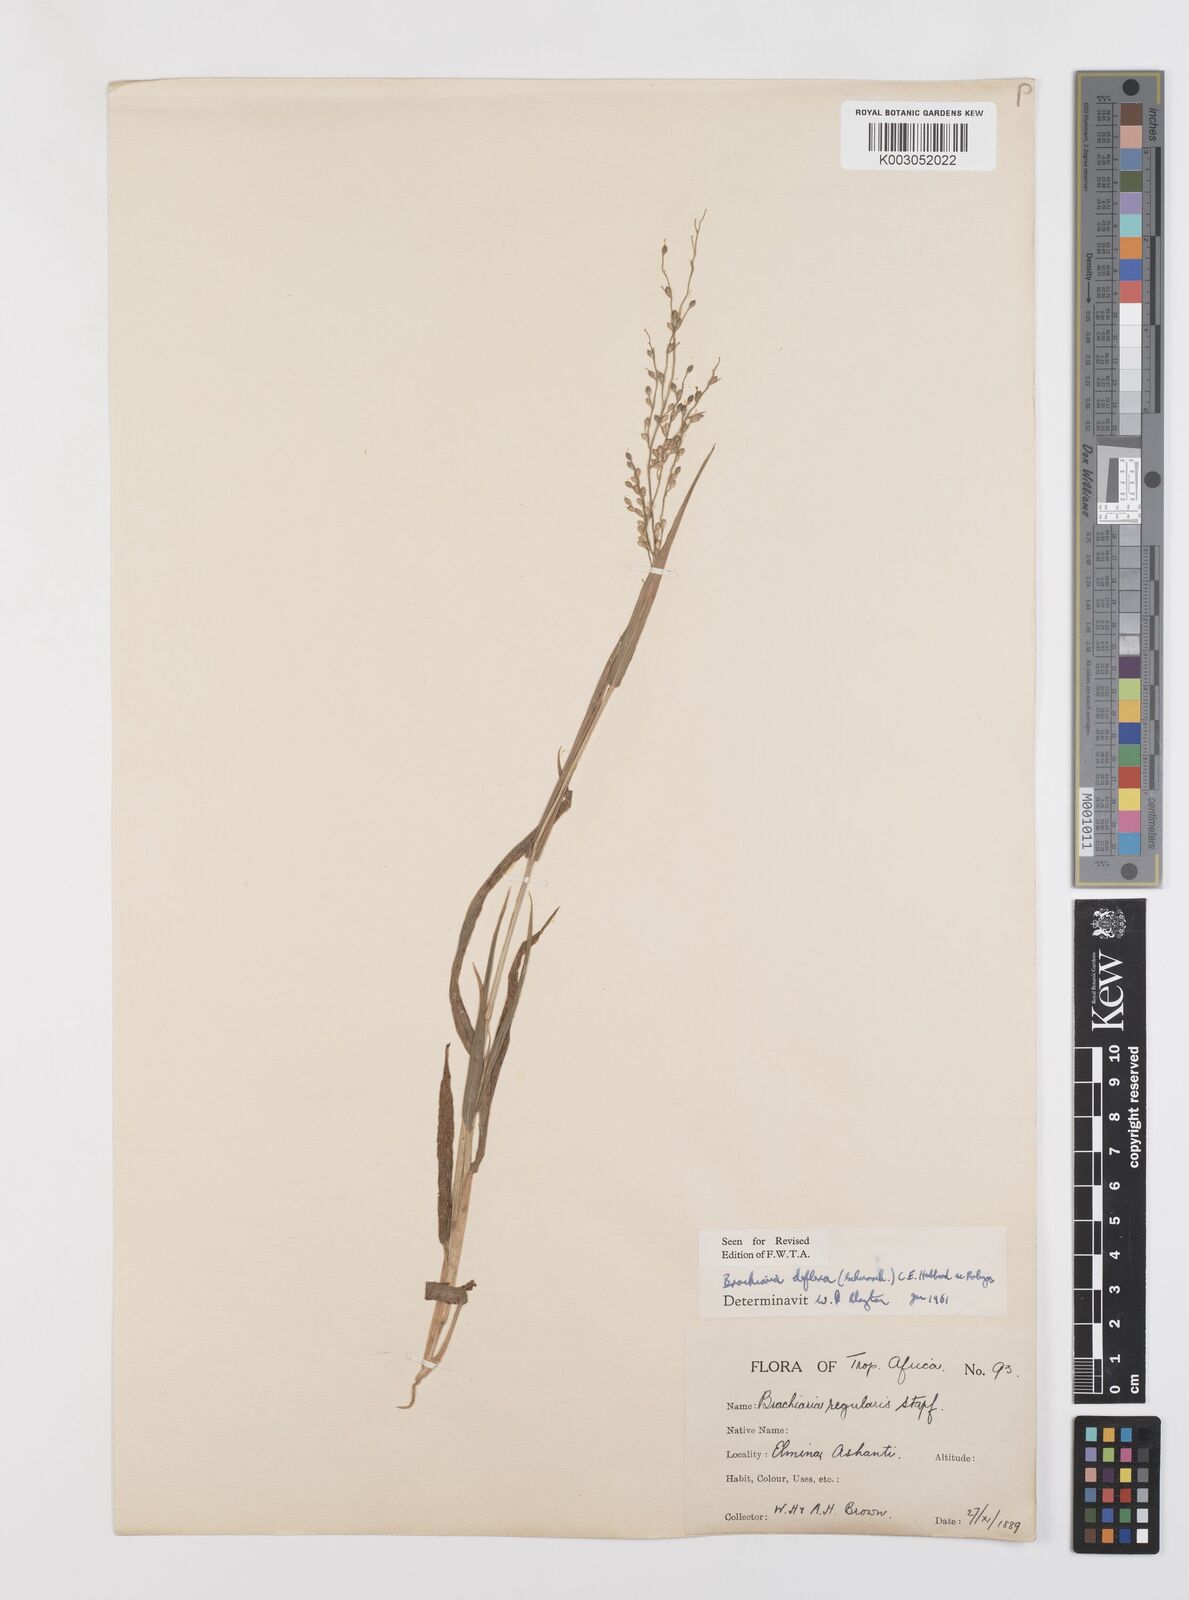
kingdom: Plantae
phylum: Tracheophyta
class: Liliopsida
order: Poales
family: Poaceae
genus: Urochloa
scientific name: Urochloa deflexa
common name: Guinea millet
